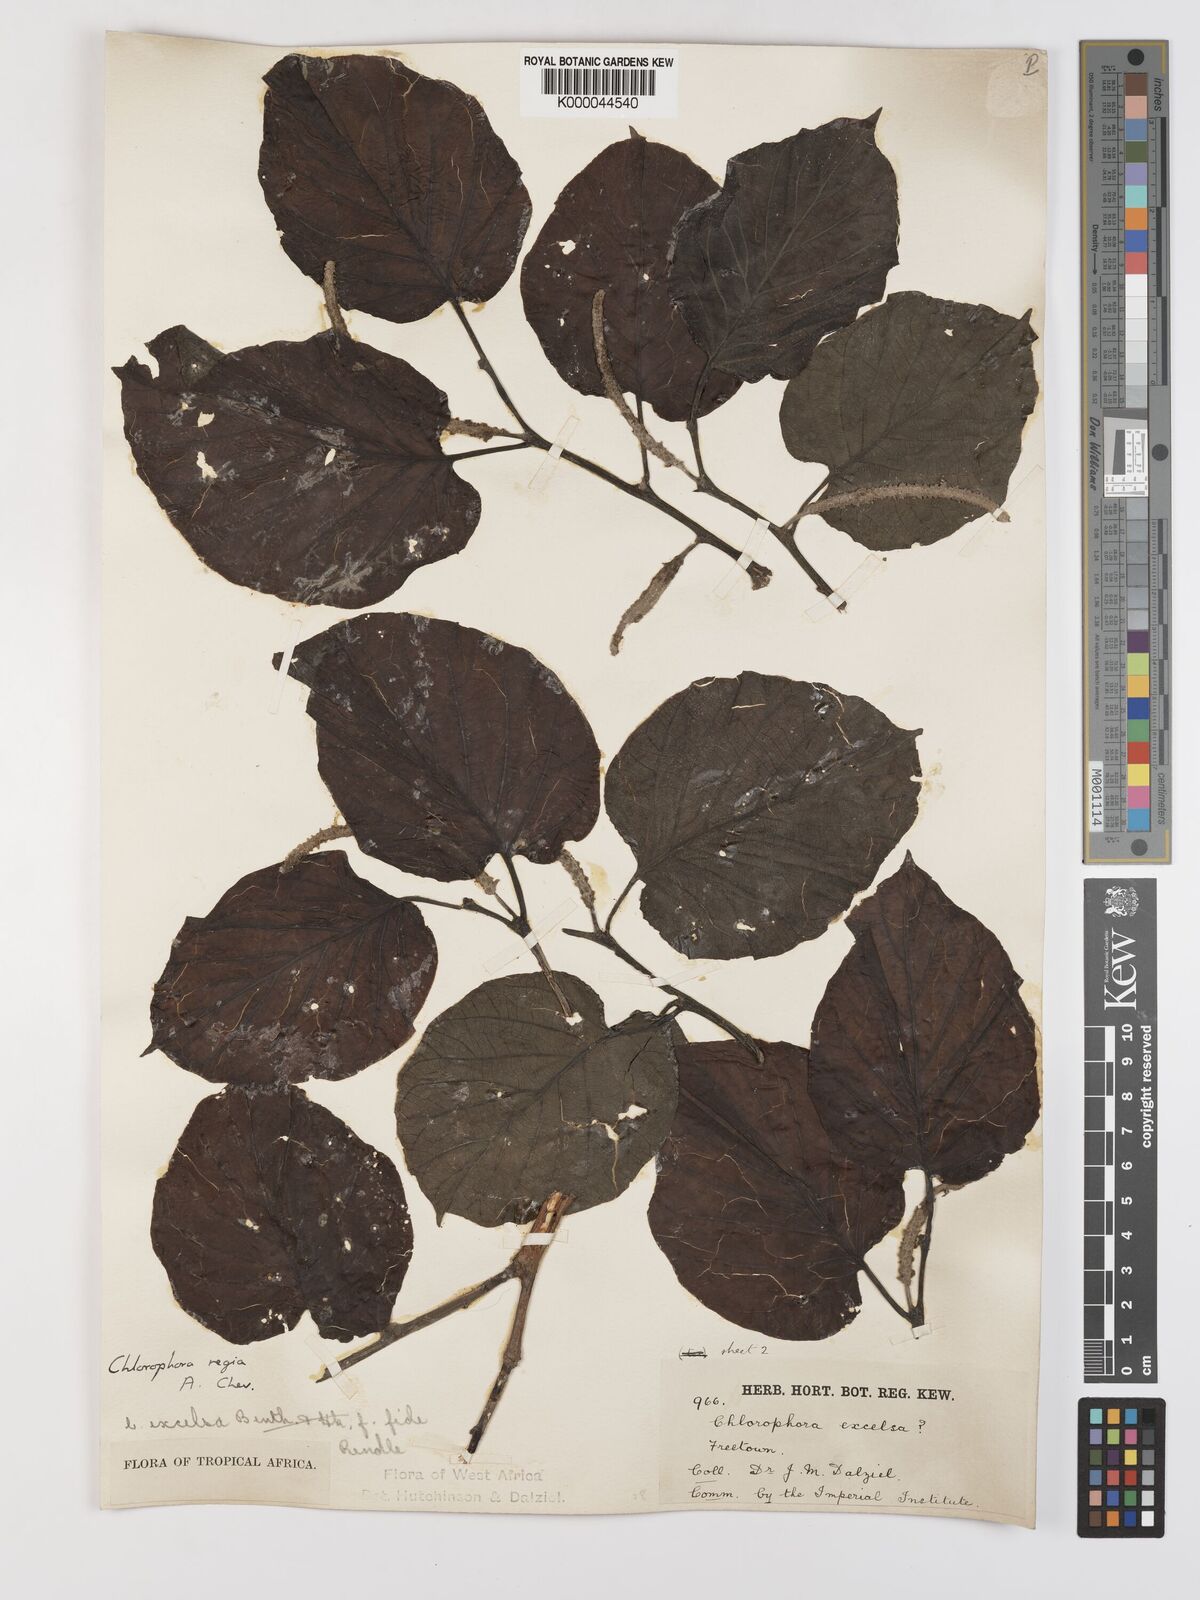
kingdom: Plantae
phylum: Tracheophyta
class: Magnoliopsida
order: Rosales
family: Moraceae
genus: Milicia
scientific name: Milicia regia
